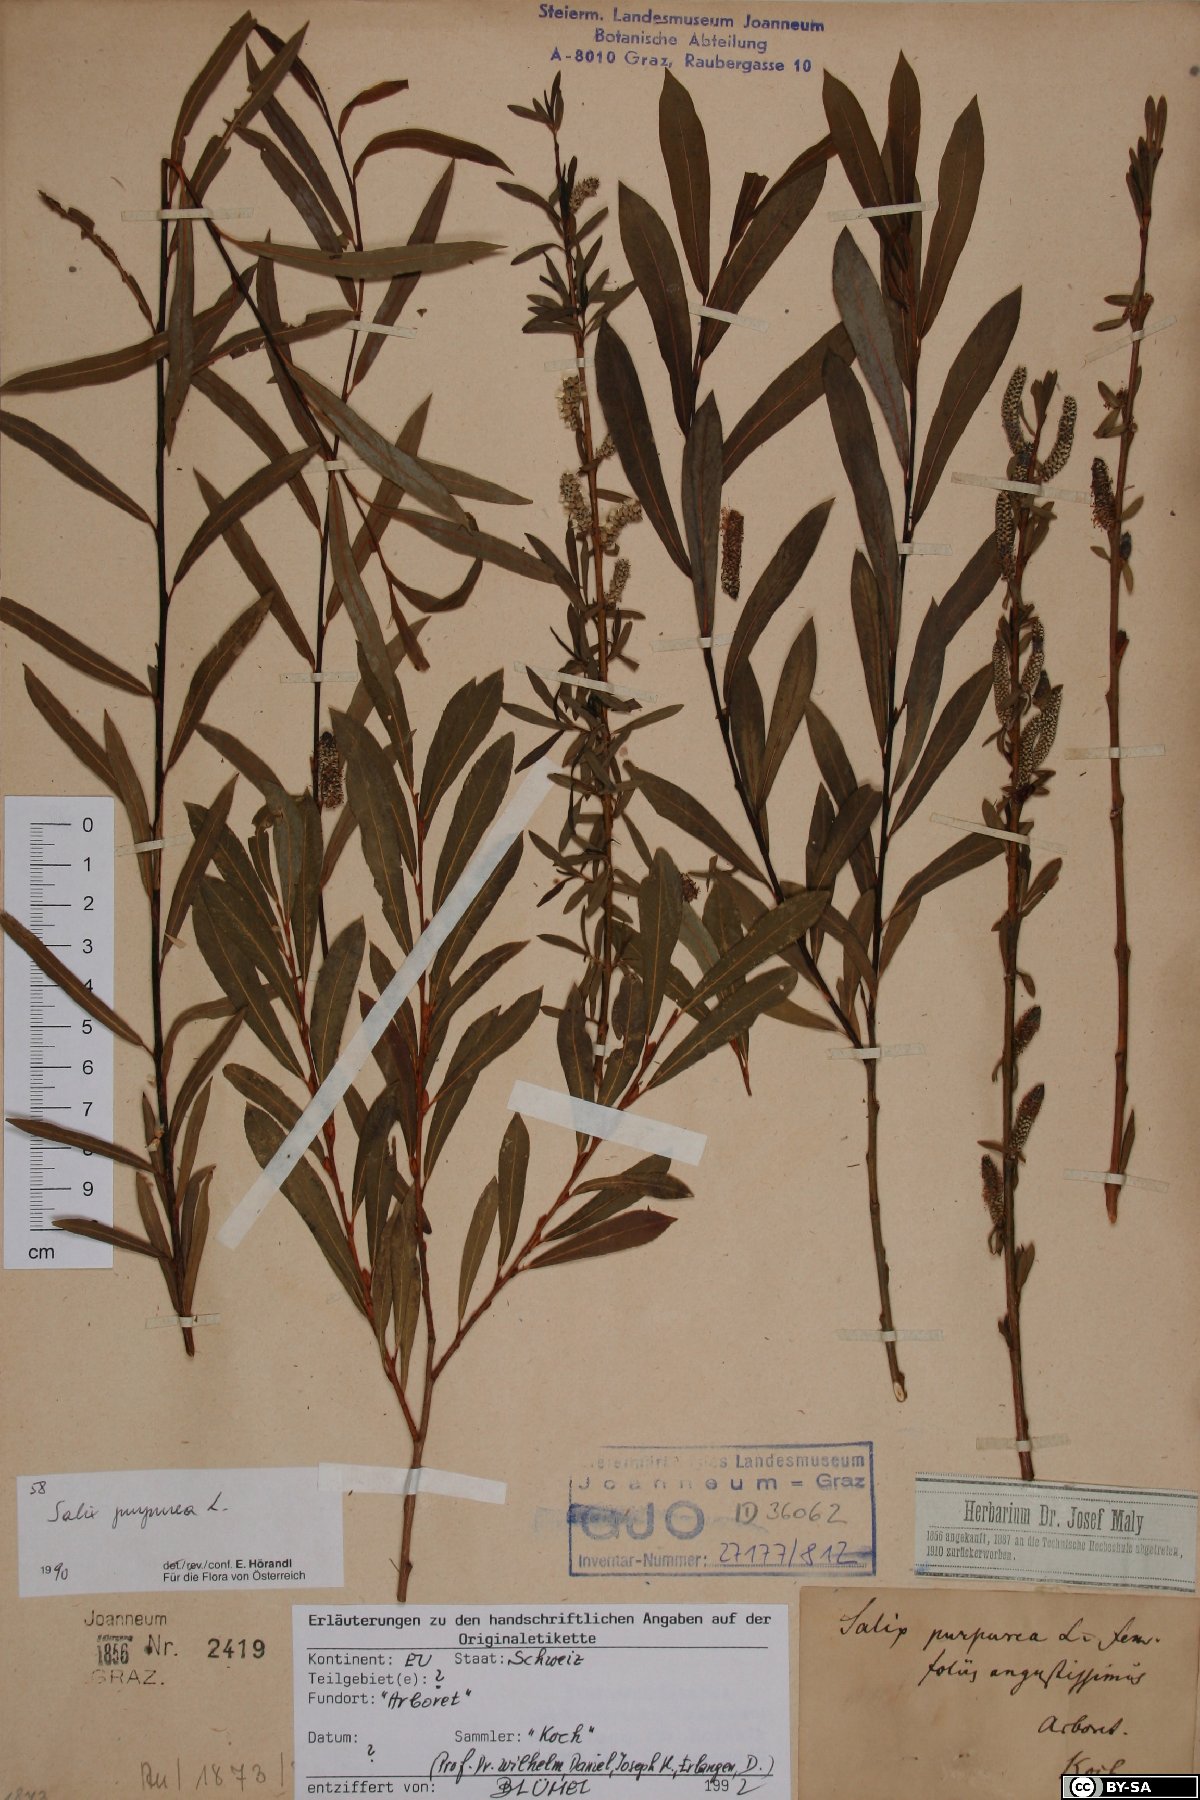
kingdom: Plantae
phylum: Tracheophyta
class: Magnoliopsida
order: Malpighiales
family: Salicaceae
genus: Salix
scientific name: Salix purpurea
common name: Purple willow
